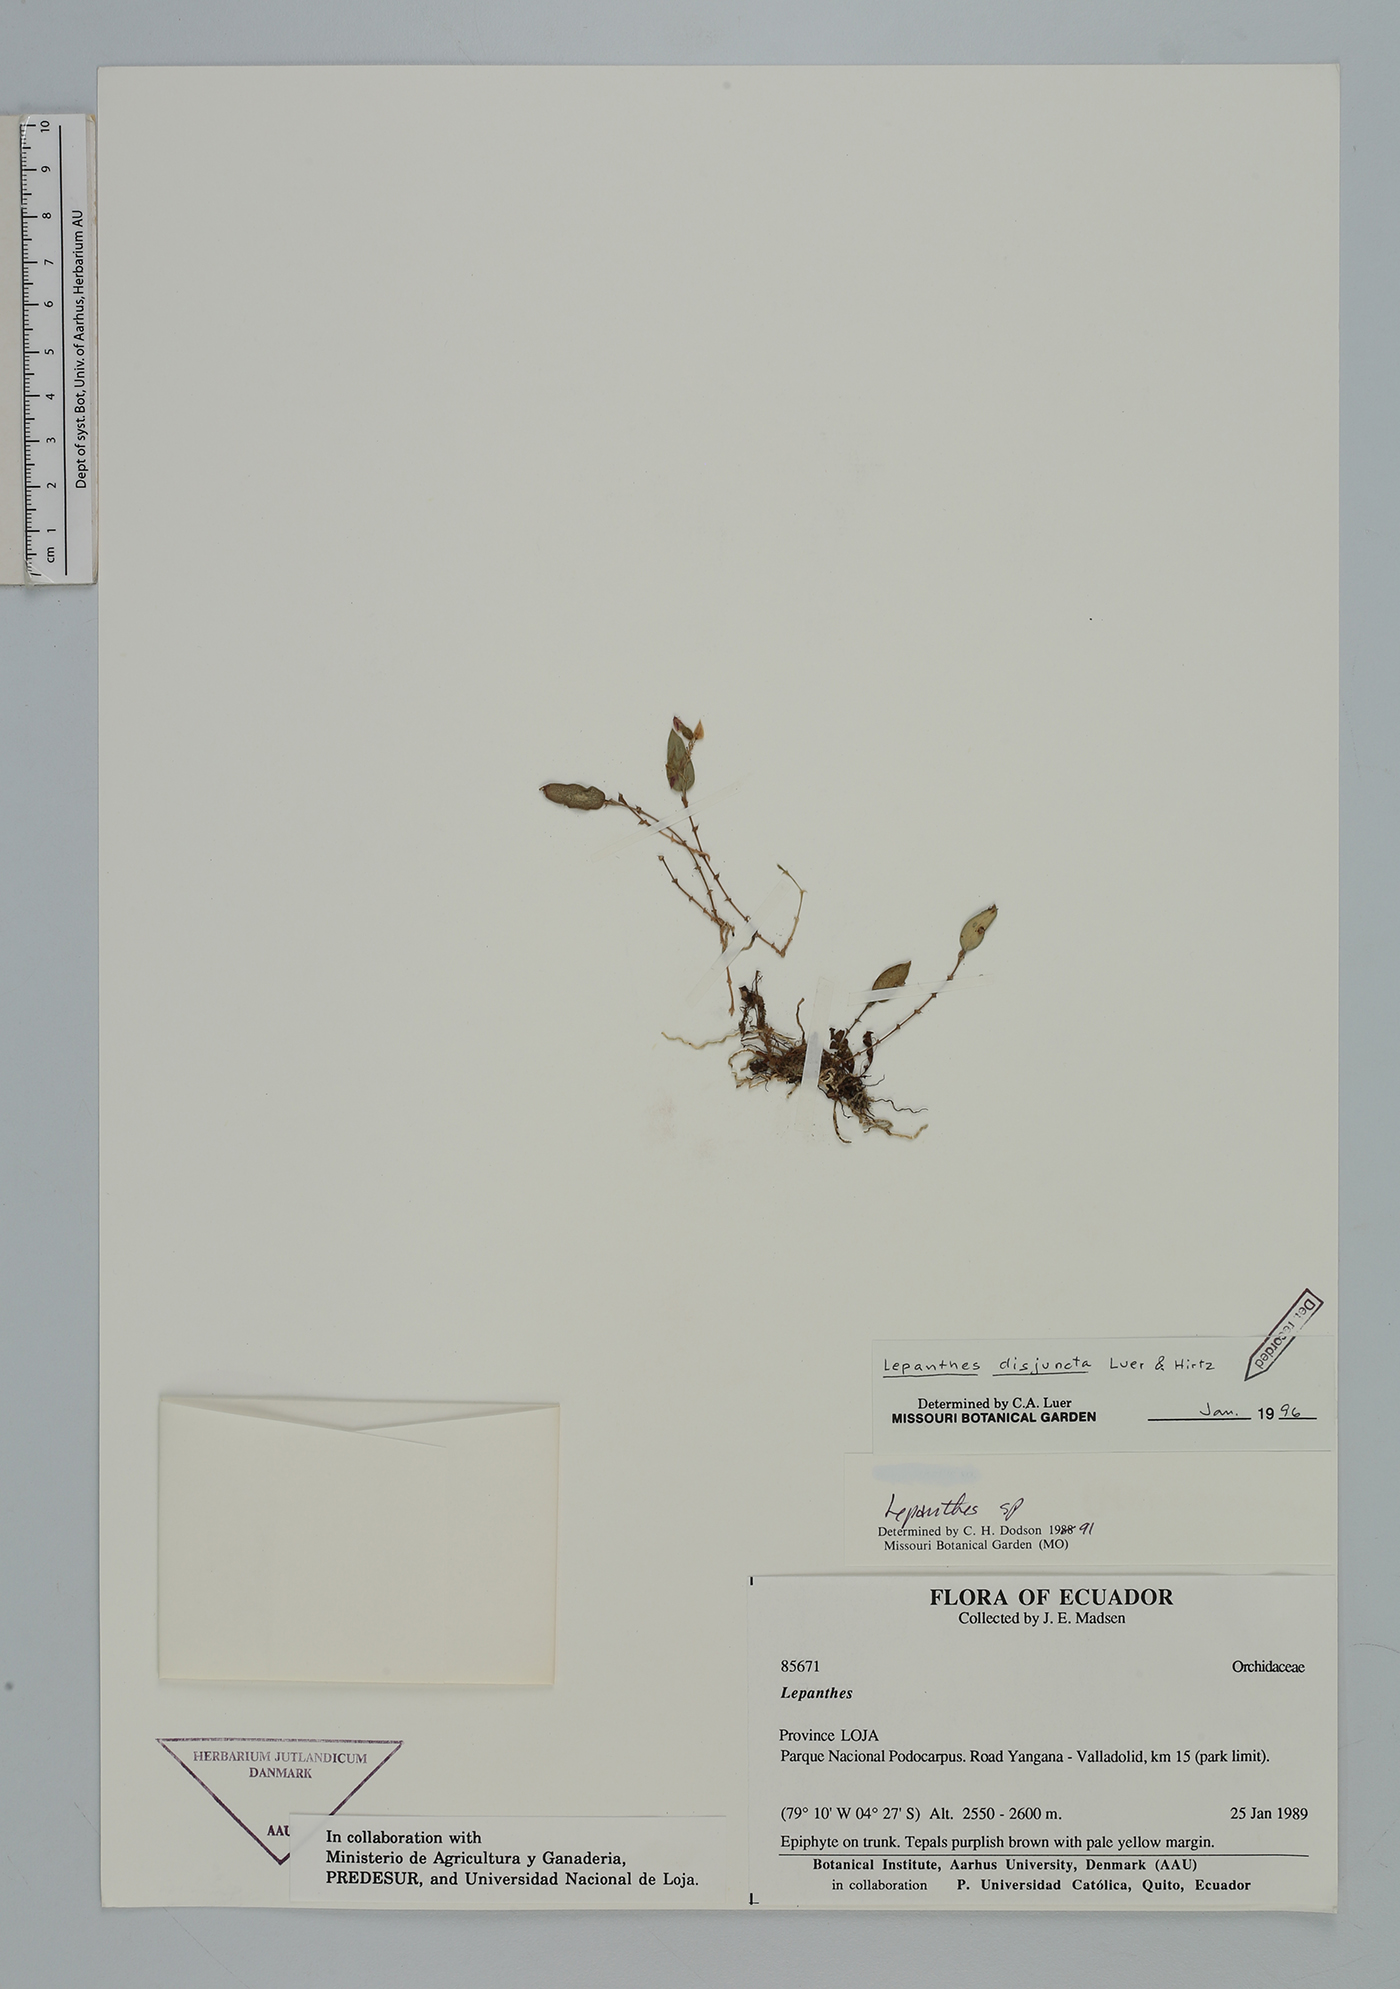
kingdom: Plantae
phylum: Tracheophyta
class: Liliopsida
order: Asparagales
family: Orchidaceae
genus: Lepanthes
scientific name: Lepanthes disjuncta
